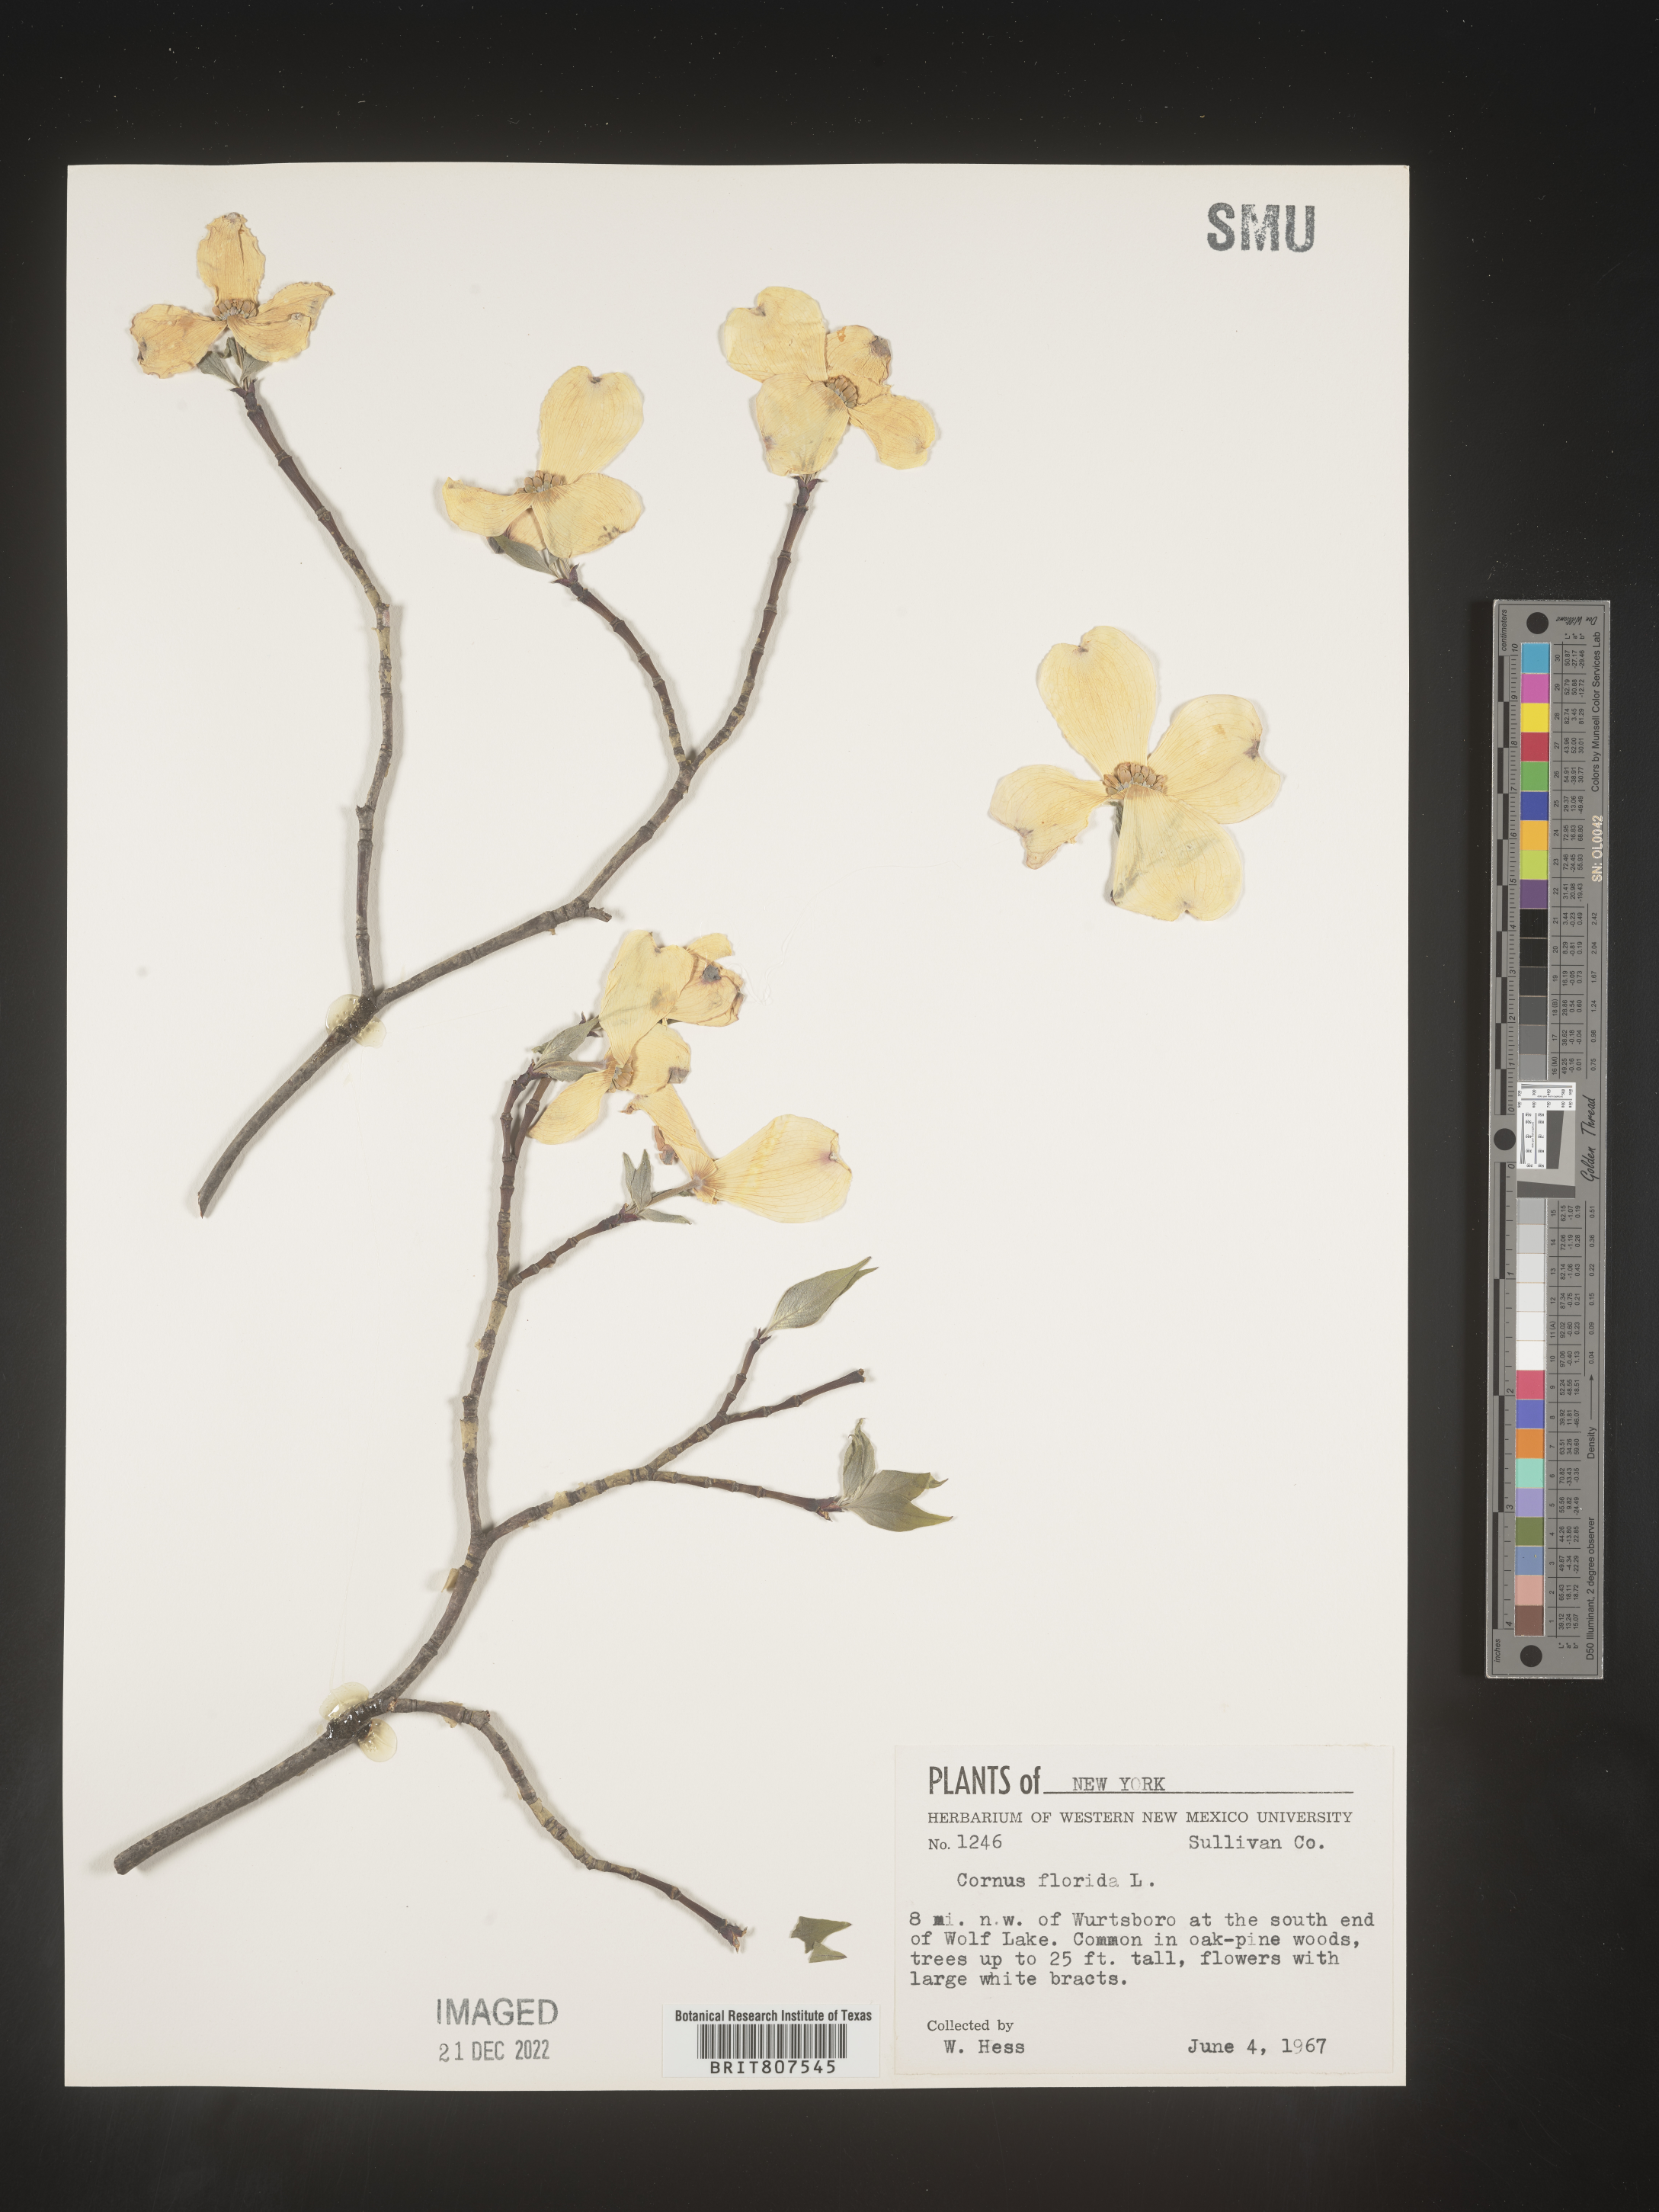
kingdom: Plantae
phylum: Tracheophyta
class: Magnoliopsida
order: Cornales
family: Cornaceae
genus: Cornus
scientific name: Cornus florida
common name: Flowering dogwood
